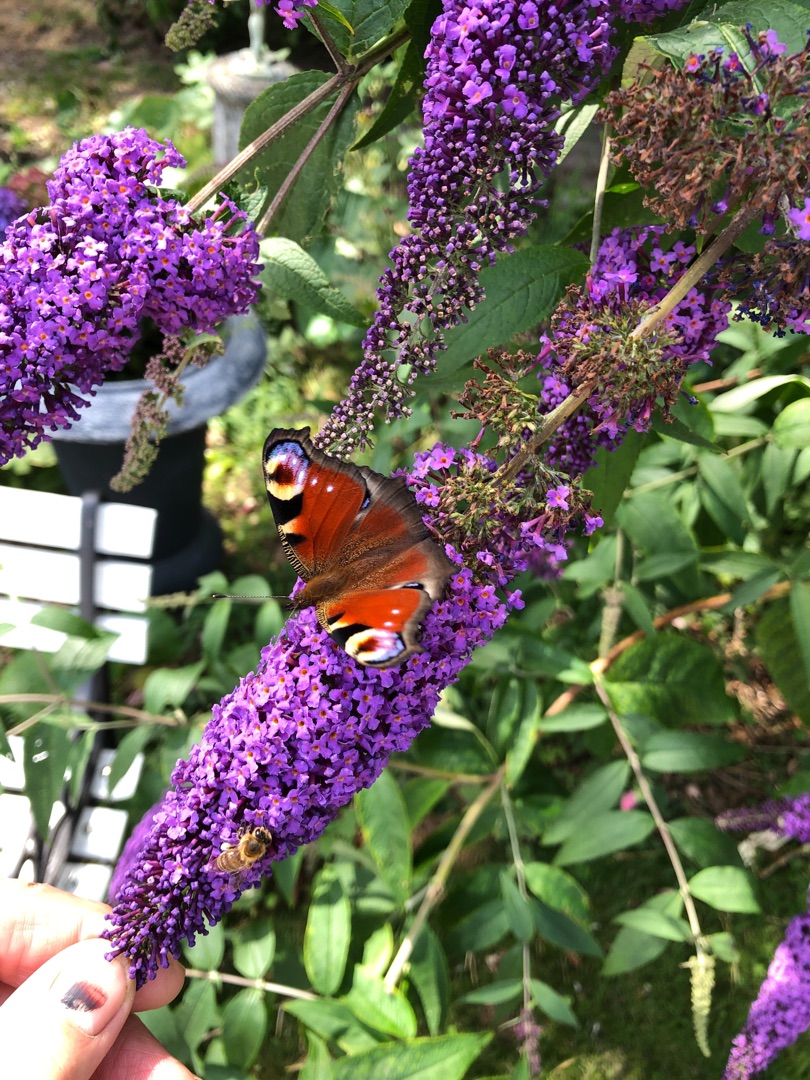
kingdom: Animalia
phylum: Arthropoda
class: Insecta
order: Lepidoptera
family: Nymphalidae
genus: Aglais
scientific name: Aglais io
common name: Dagpåfugleøje
